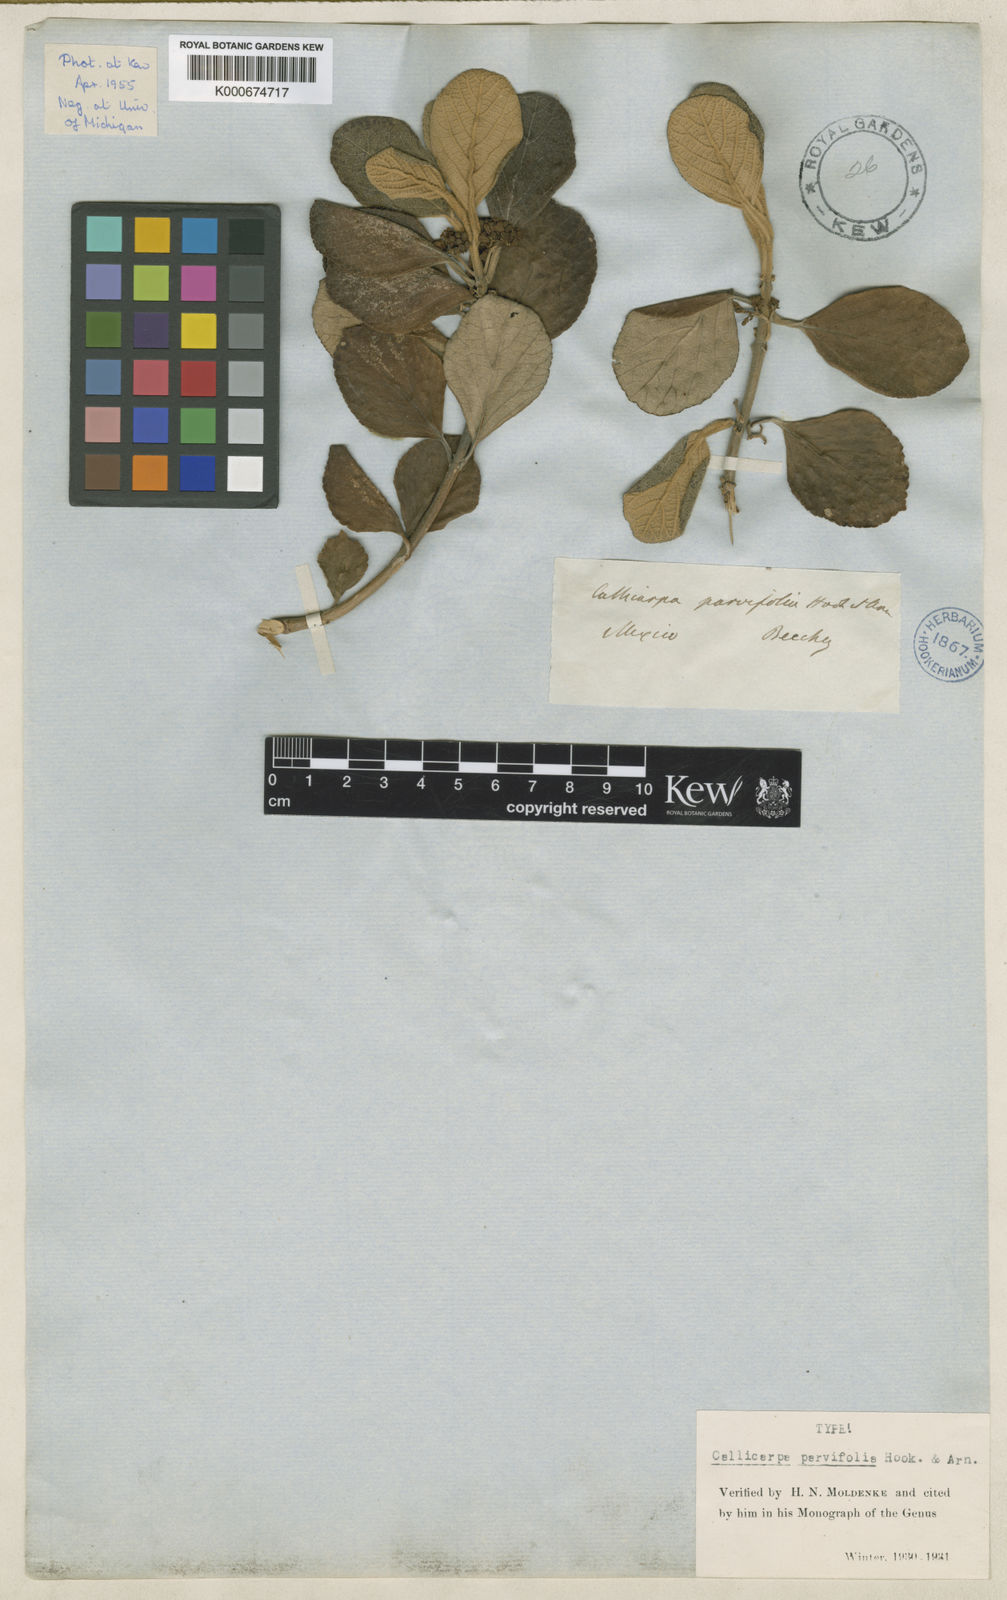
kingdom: Plantae
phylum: Tracheophyta
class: Magnoliopsida
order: Lamiales
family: Lamiaceae
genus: Callicarpa
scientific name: Callicarpa parvifolia
